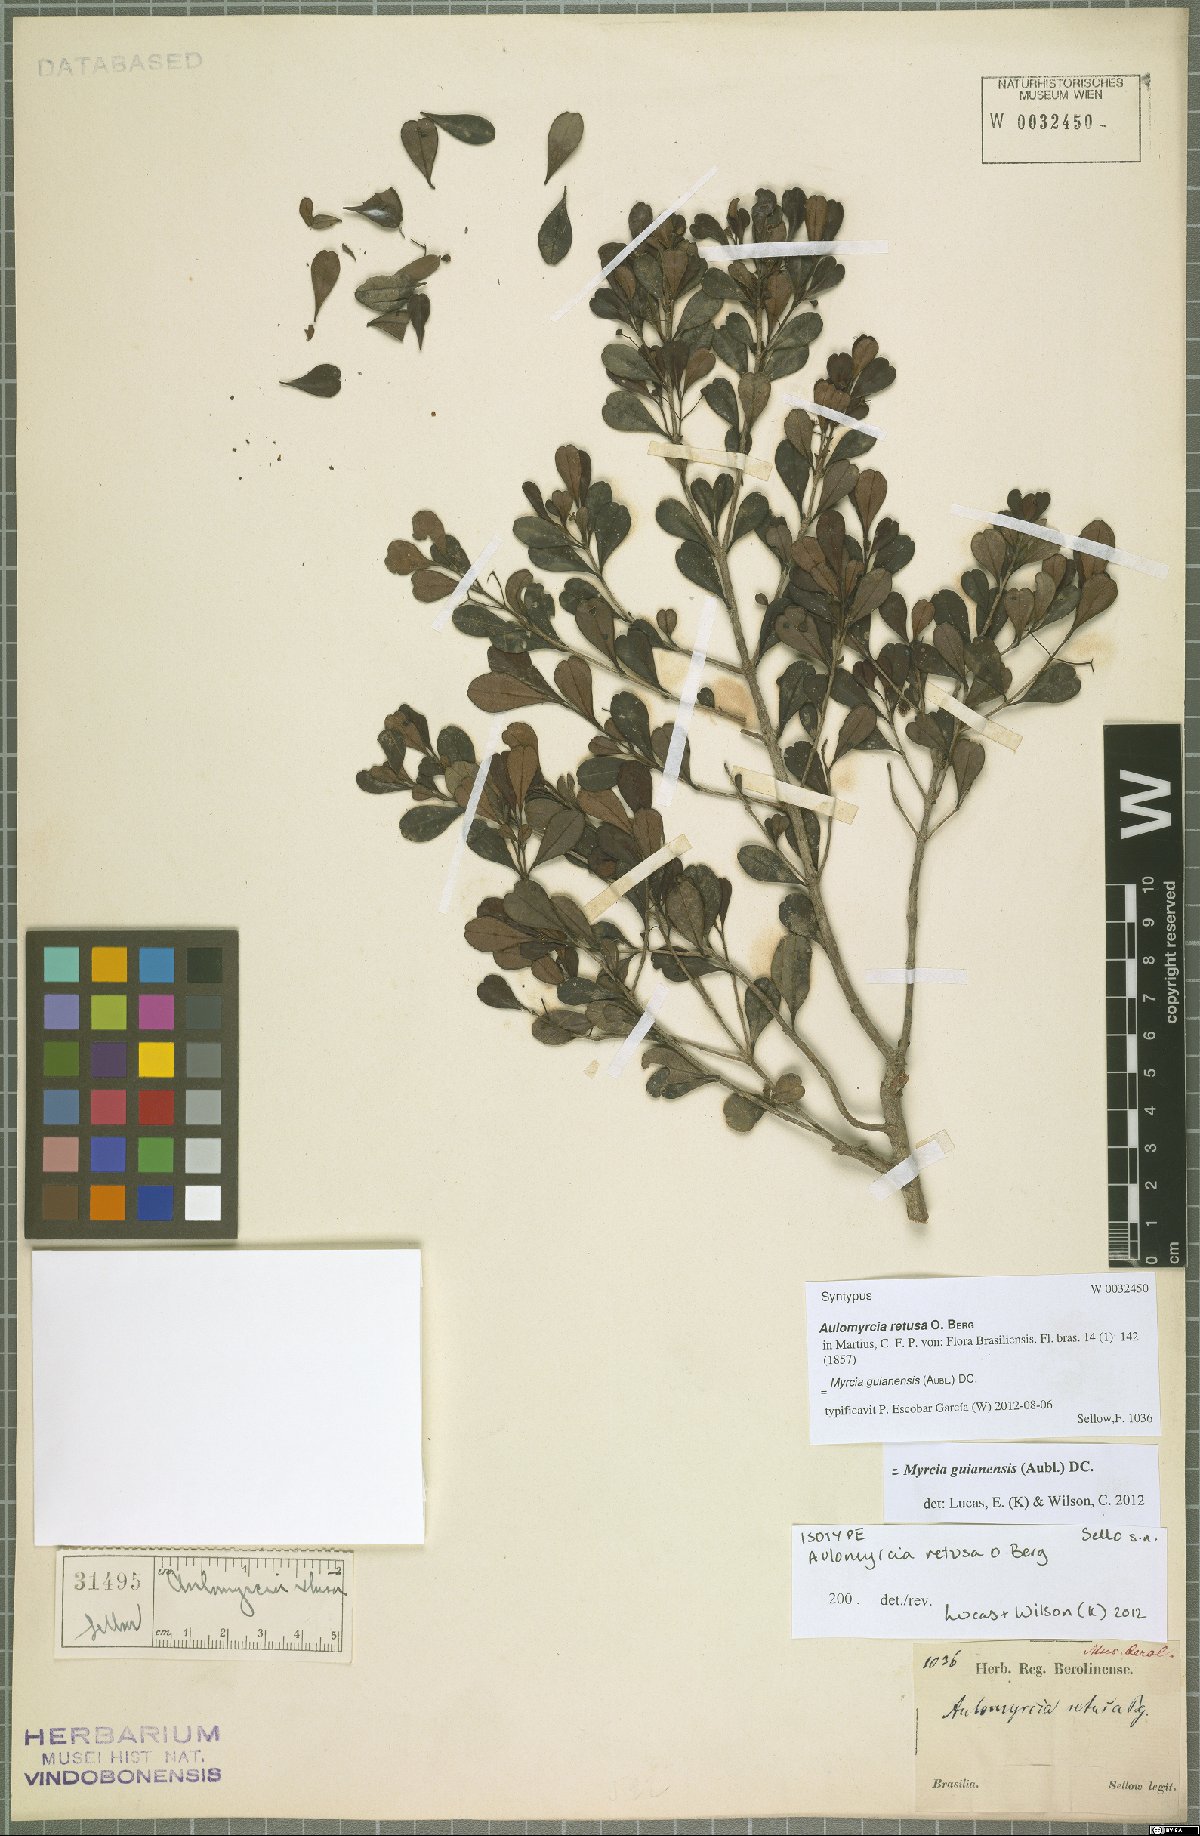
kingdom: Plantae
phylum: Tracheophyta
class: Magnoliopsida
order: Myrtales
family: Myrtaceae
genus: Myrcia
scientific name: Myrcia guianensis
